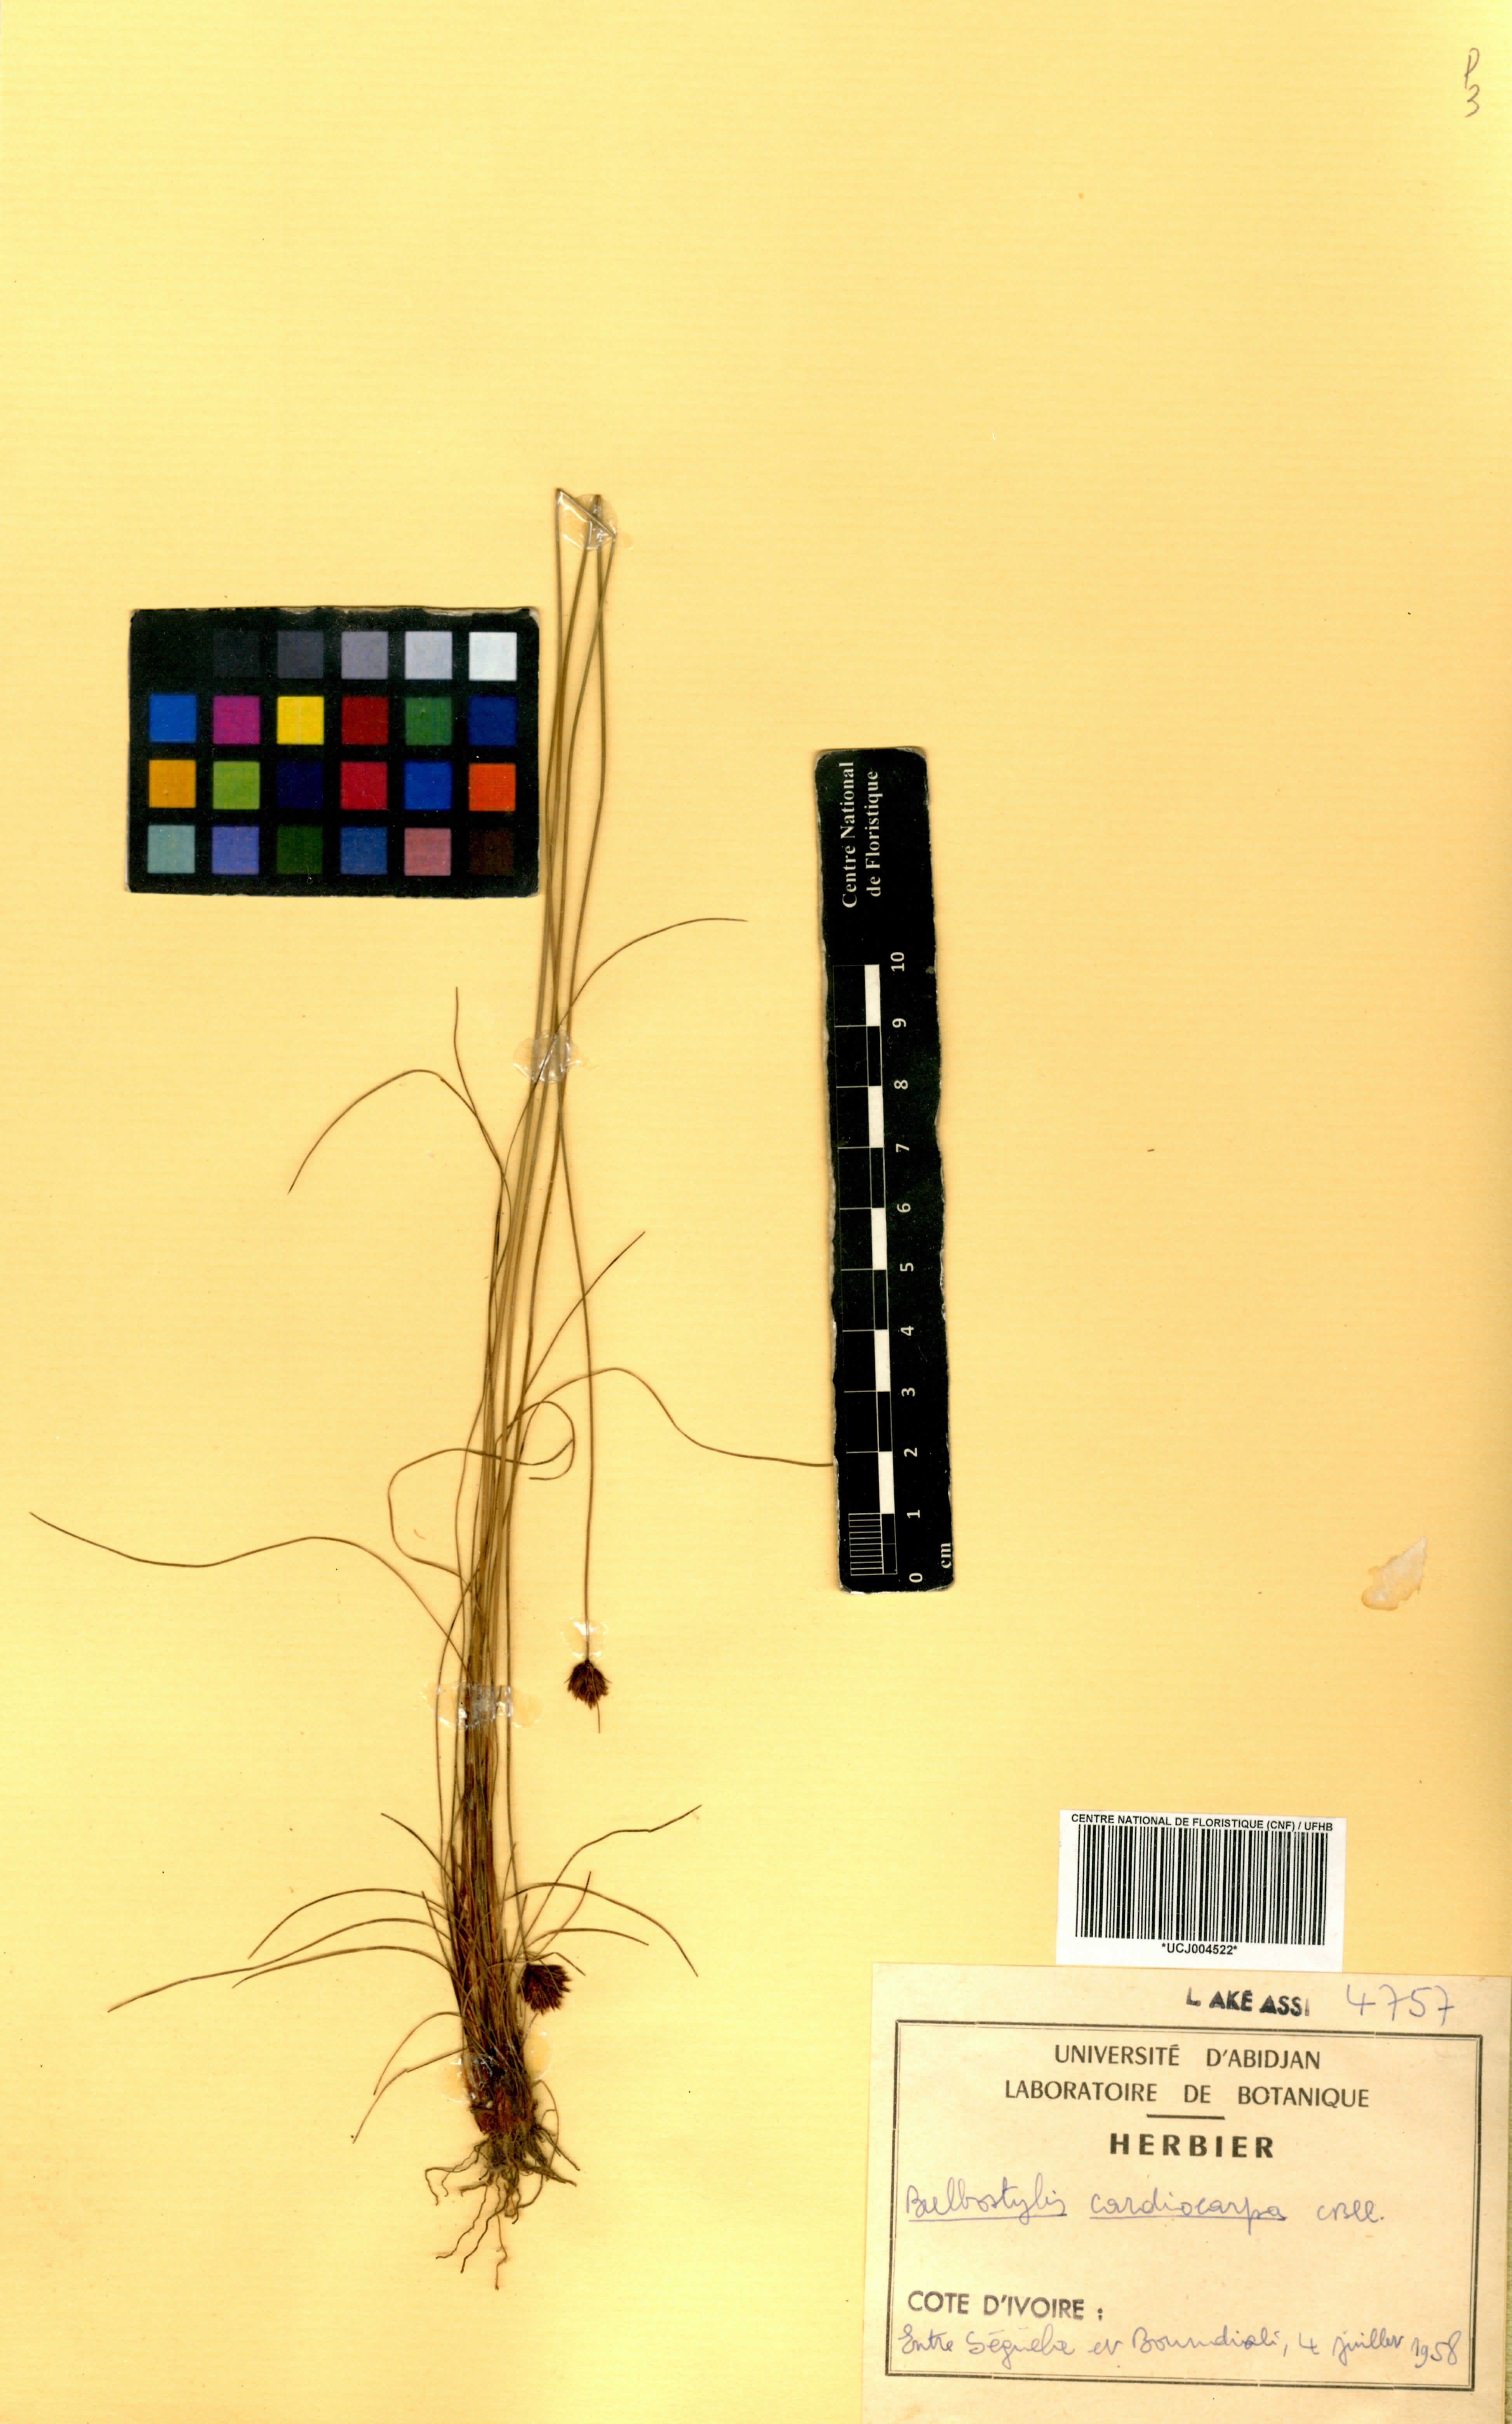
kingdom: Plantae
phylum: Tracheophyta
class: Liliopsida
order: Poales
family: Cyperaceae
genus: Bulbostylis
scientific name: Bulbostylis filamentosa
